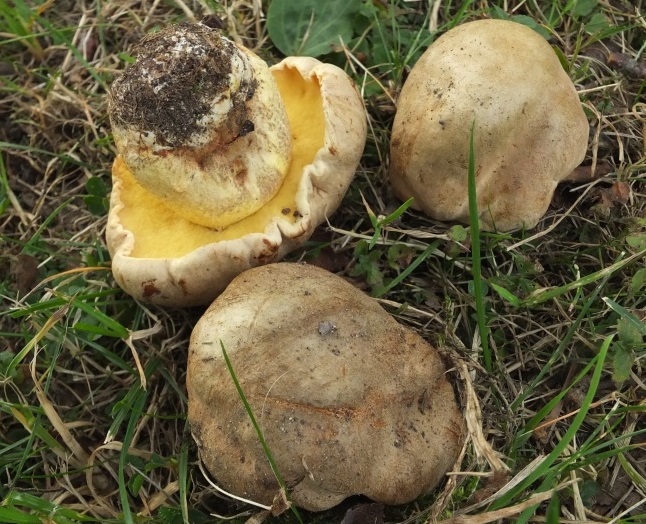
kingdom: Fungi
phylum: Basidiomycota
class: Agaricomycetes
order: Boletales
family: Boletaceae
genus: Hemileccinum
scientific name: Hemileccinum impolitum
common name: bleg rørhat
